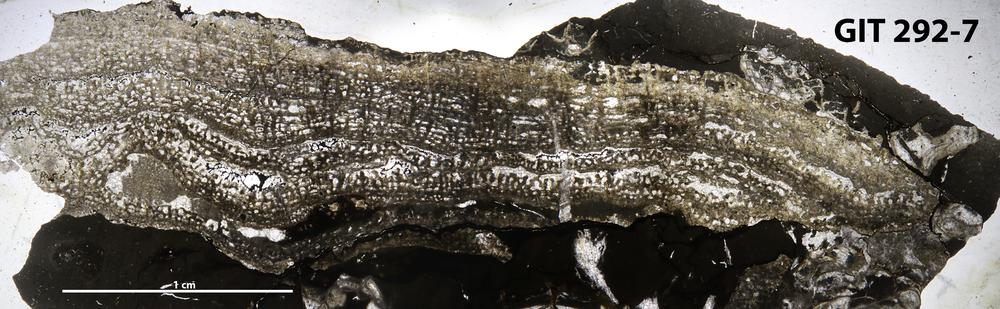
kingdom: Animalia
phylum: Porifera
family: Syringostromellidae
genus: Syringostromella
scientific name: Syringostromella
